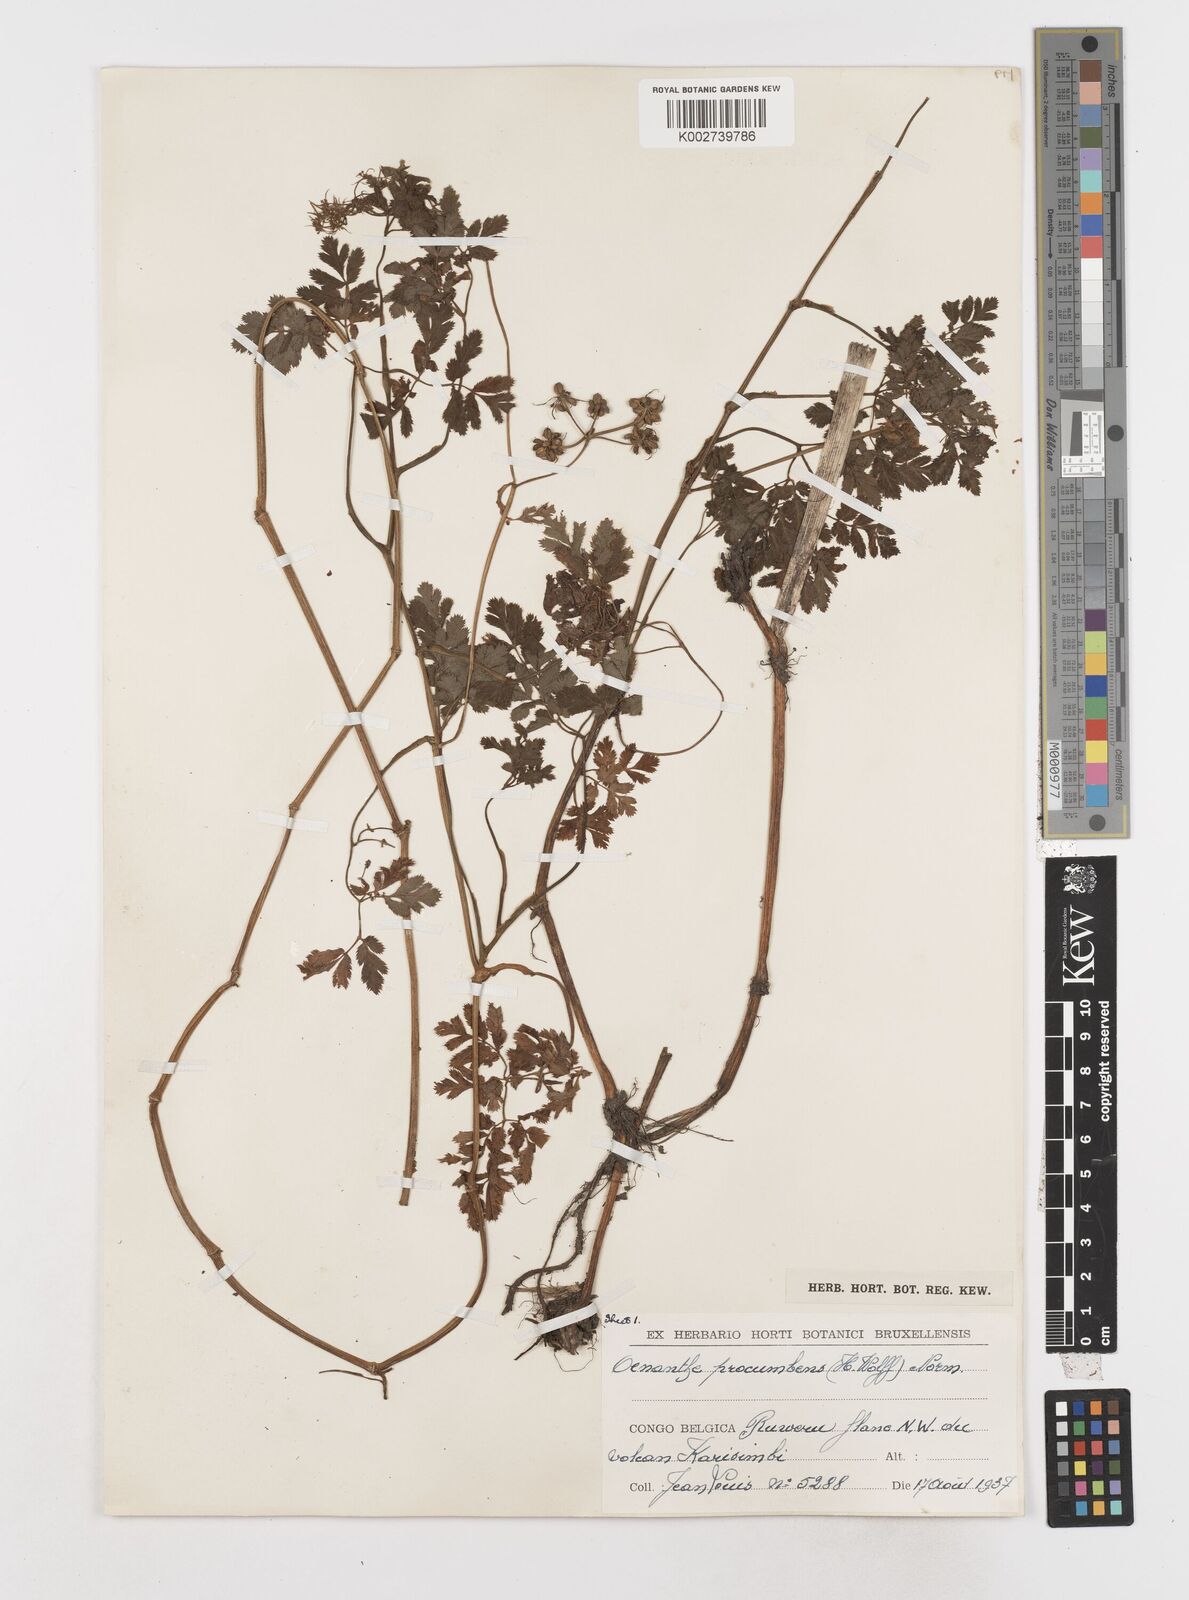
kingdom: Plantae
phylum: Tracheophyta
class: Magnoliopsida
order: Apiales
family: Apiaceae
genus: Oenanthe
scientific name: Oenanthe procumbens
